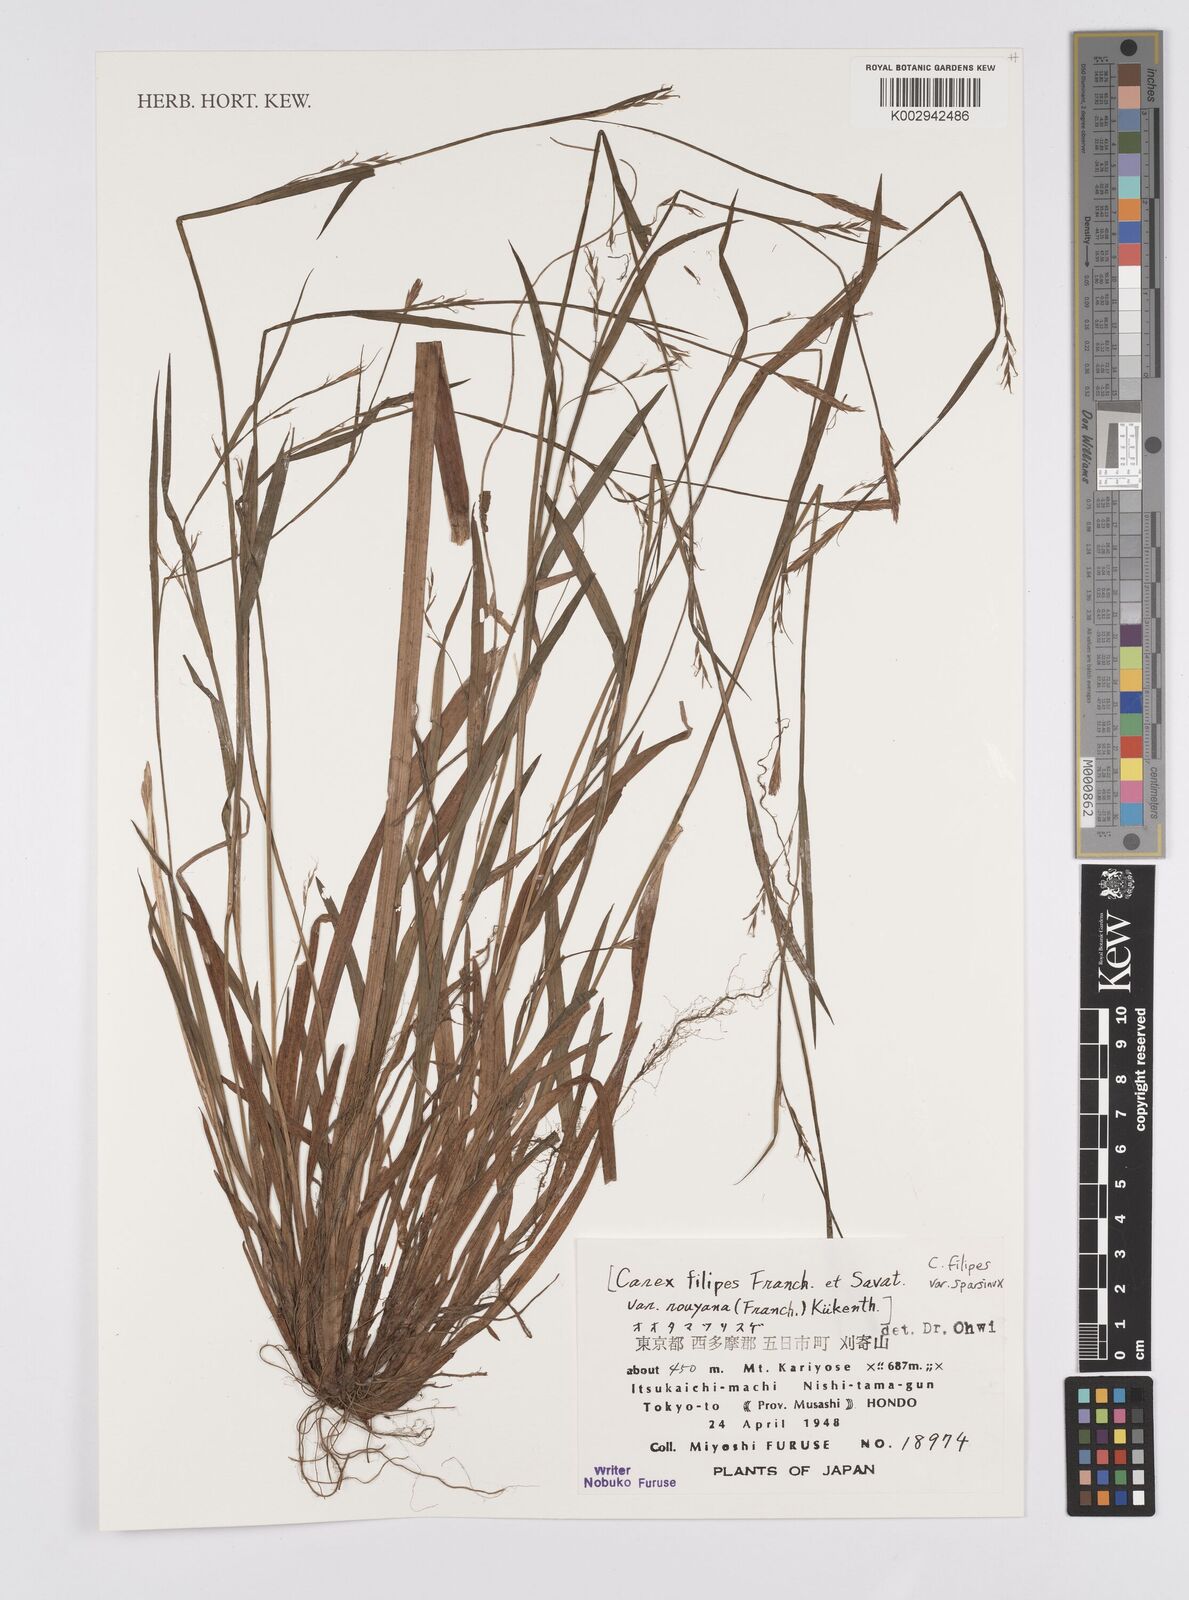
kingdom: Plantae
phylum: Tracheophyta
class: Liliopsida
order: Poales
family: Cyperaceae
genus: Carex
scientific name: Carex filipes
